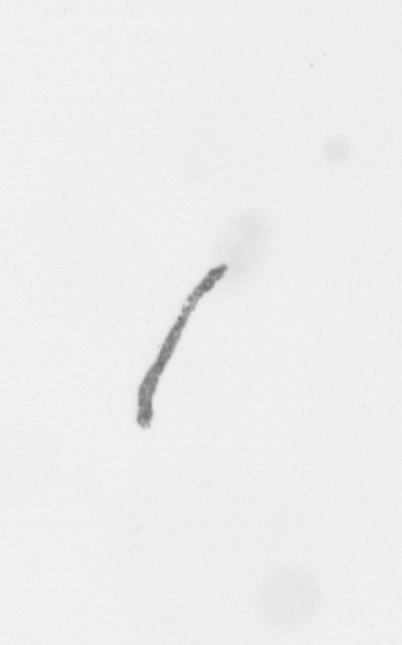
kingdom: Chromista
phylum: Ochrophyta
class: Bacillariophyceae
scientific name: Bacillariophyceae
